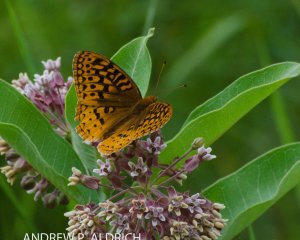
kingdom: Animalia
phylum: Arthropoda
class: Insecta
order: Lepidoptera
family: Nymphalidae
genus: Speyeria
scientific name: Speyeria cybele
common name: Great Spangled Fritillary
